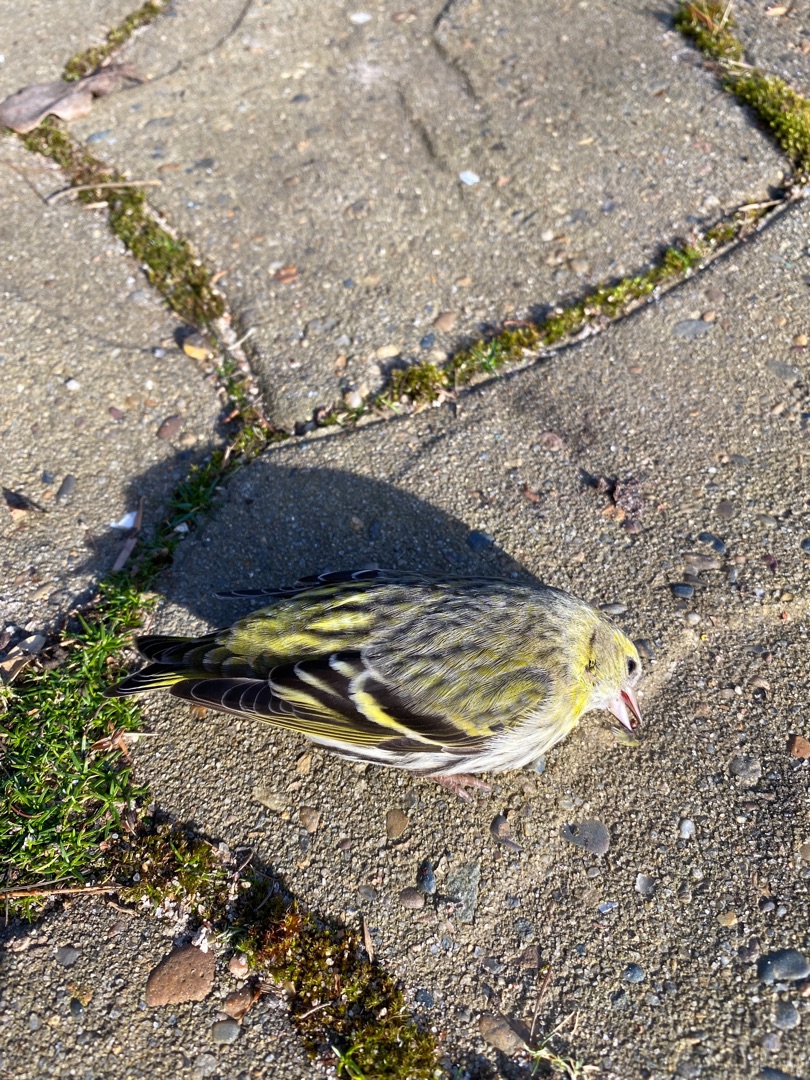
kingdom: Animalia
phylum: Chordata
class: Aves
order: Passeriformes
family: Fringillidae
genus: Spinus
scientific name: Spinus spinus
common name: Grønsisken
